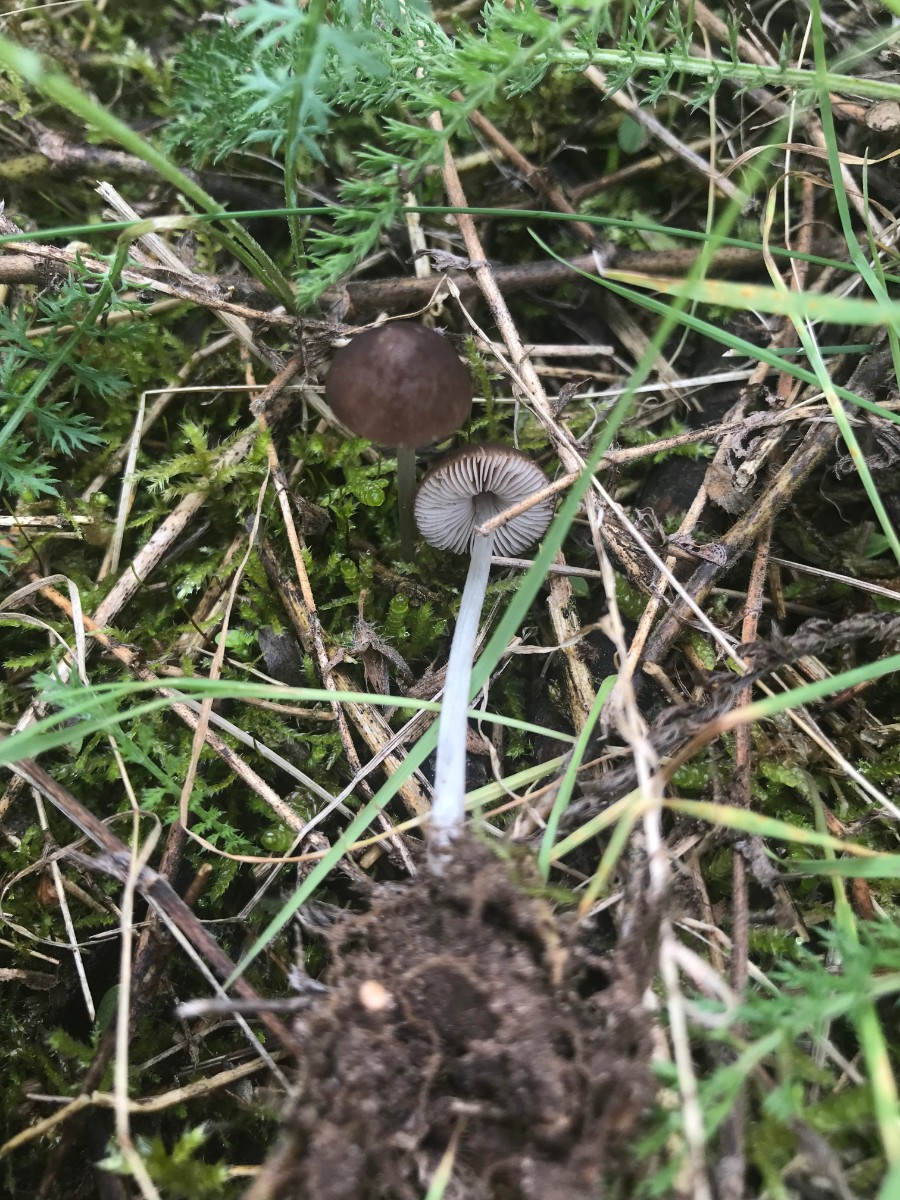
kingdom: Fungi
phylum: Basidiomycota
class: Agaricomycetes
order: Agaricales
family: Pluteaceae
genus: Pluteus
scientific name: Pluteus spinosae
